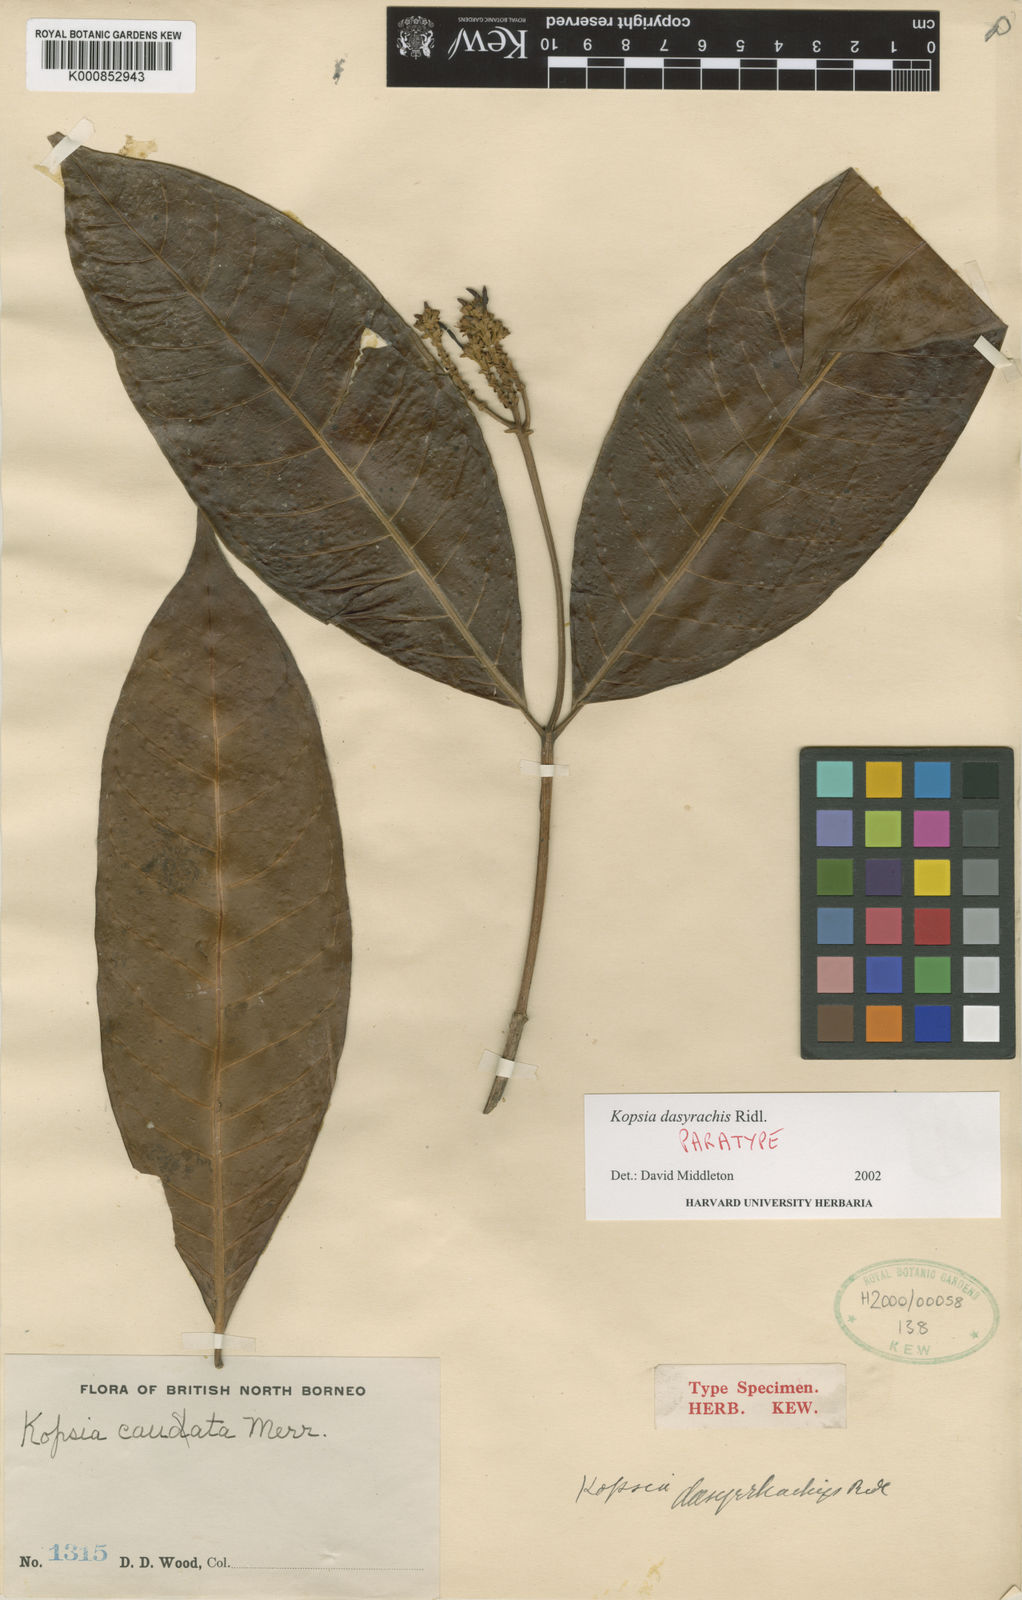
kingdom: Plantae
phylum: Tracheophyta
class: Magnoliopsida
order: Gentianales
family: Apocynaceae
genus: Kopsia
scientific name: Kopsia dasyrachis
